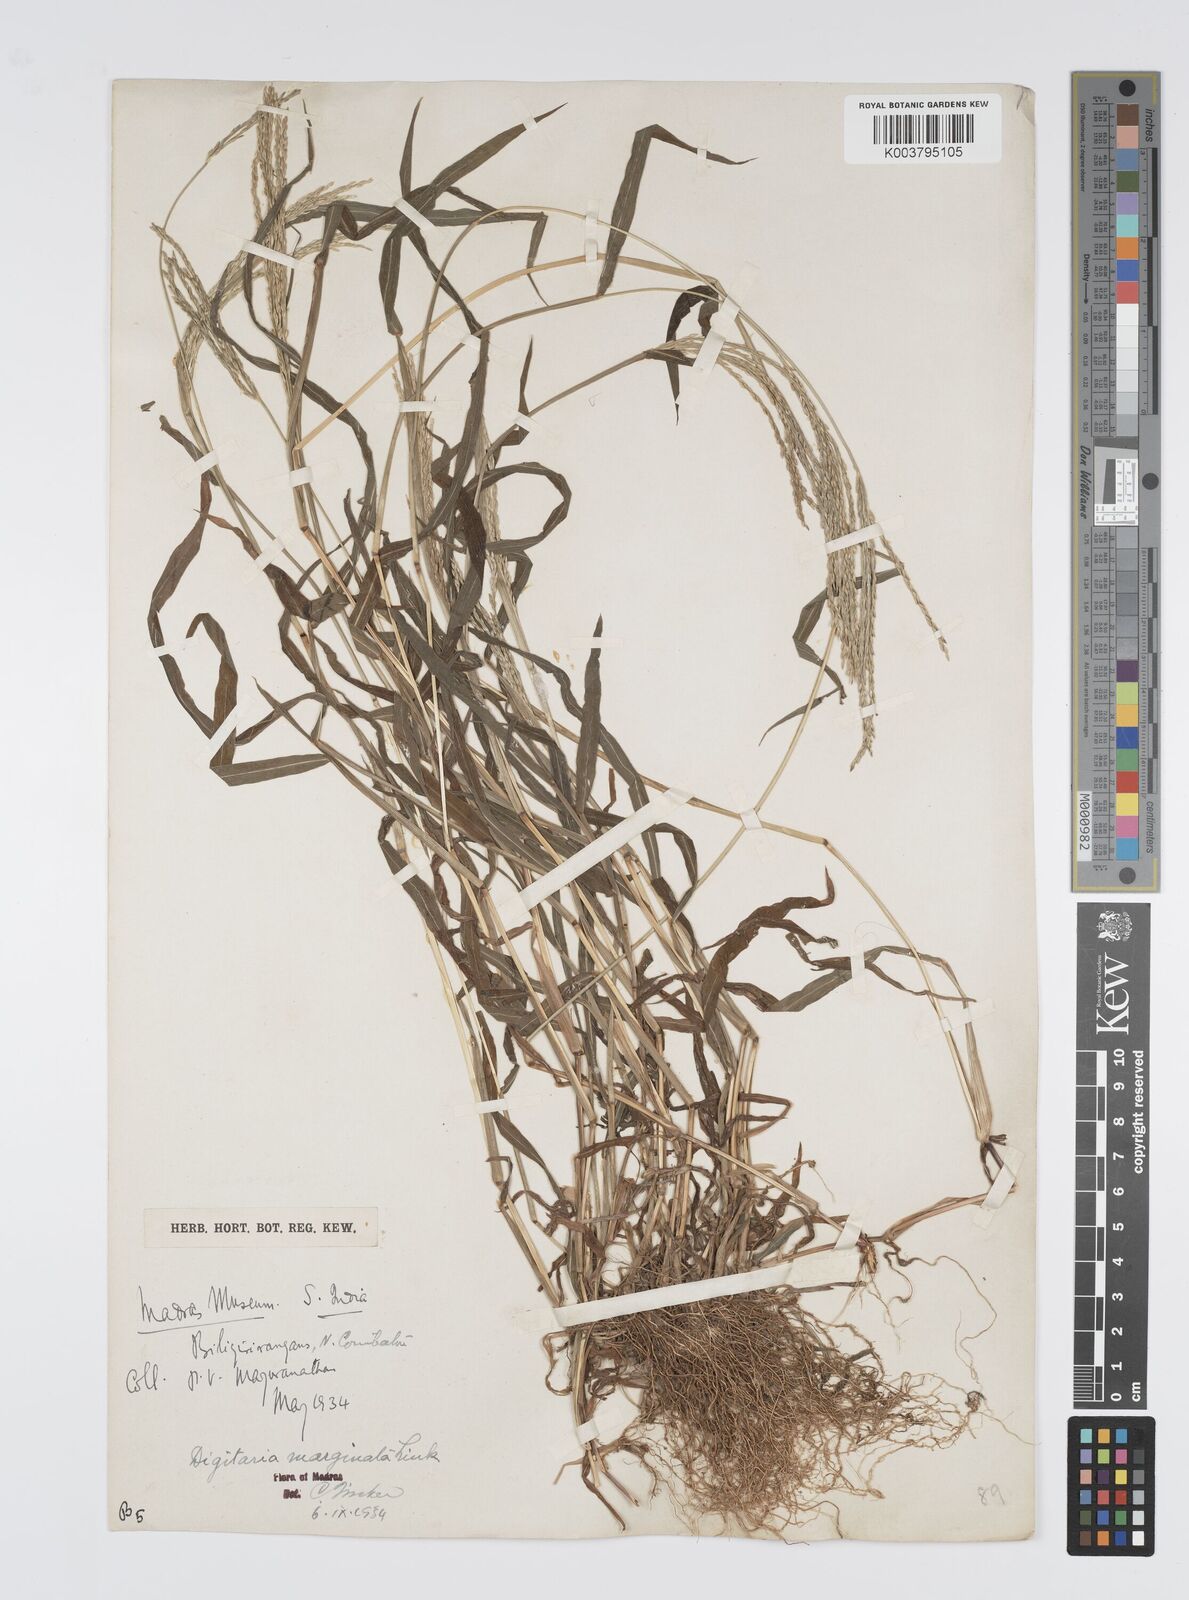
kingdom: Plantae
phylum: Tracheophyta
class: Liliopsida
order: Poales
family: Poaceae
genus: Digitaria
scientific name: Digitaria setigera
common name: East indian crabgrass
